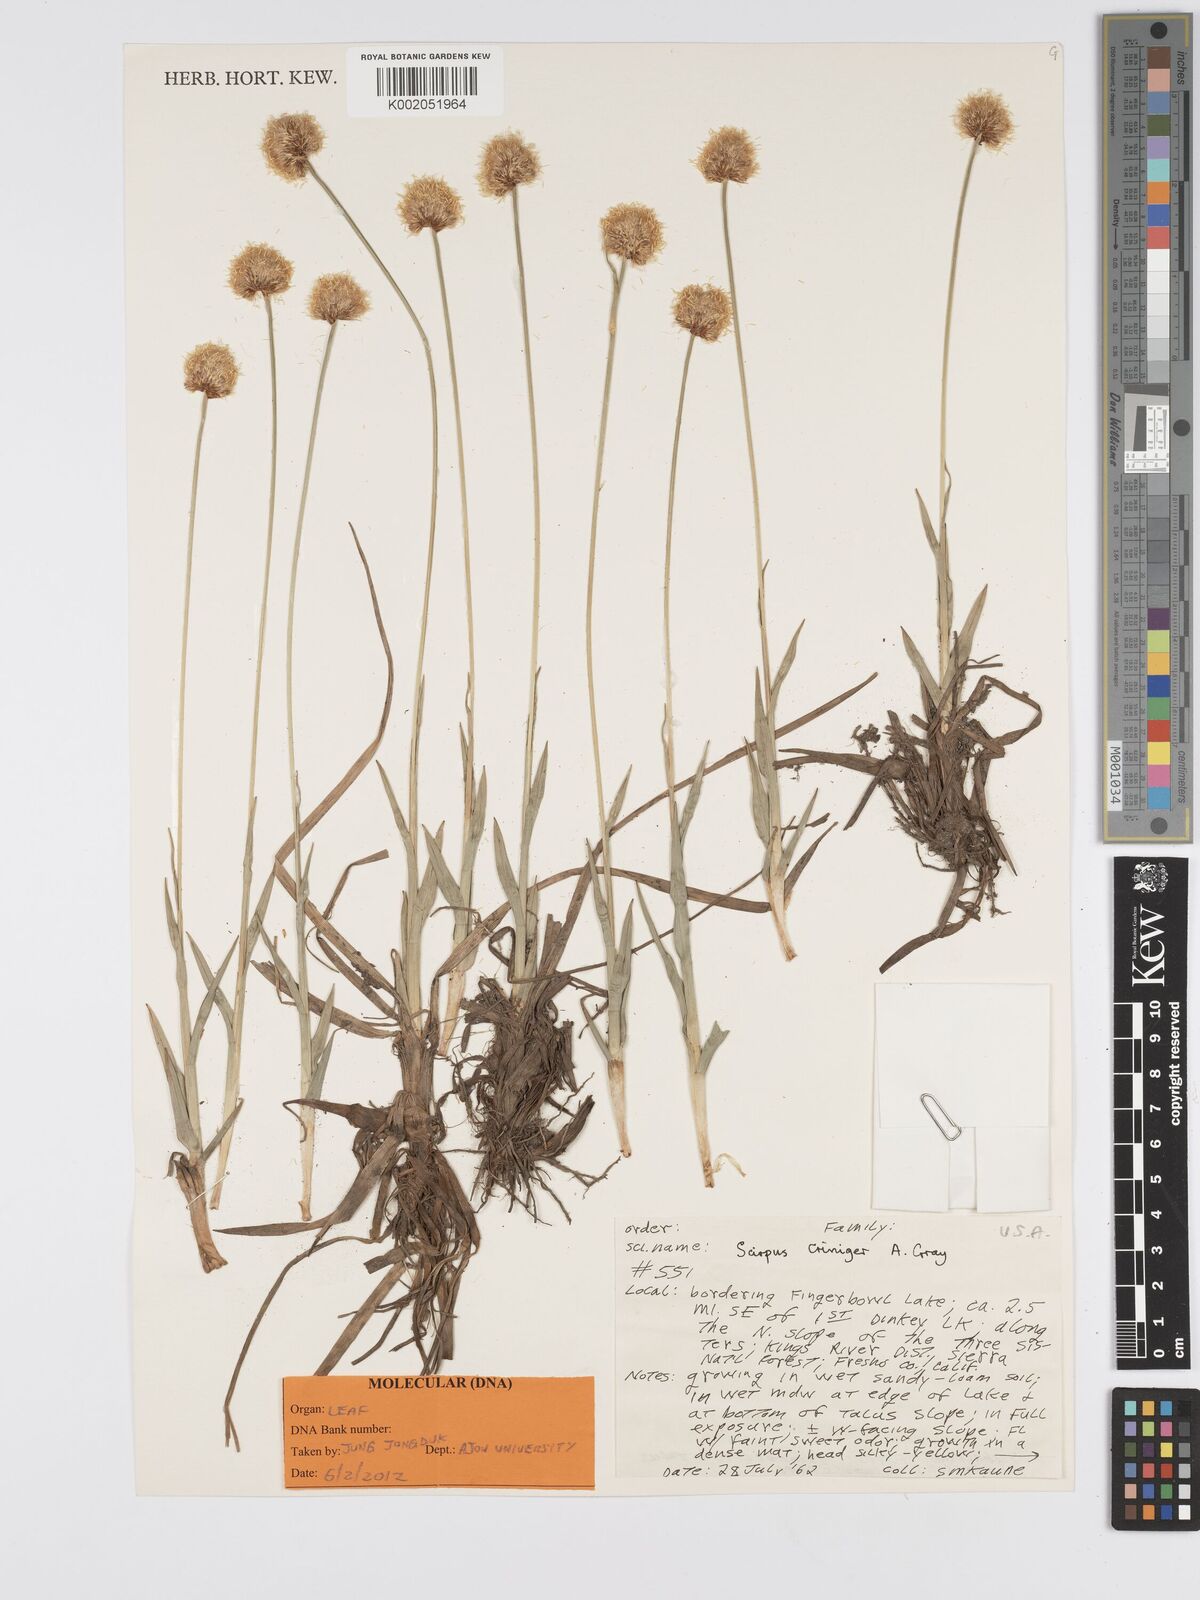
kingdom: Plantae
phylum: Tracheophyta
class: Liliopsida
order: Poales
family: Cyperaceae
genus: Calliscirpus
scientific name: Calliscirpus criniger
